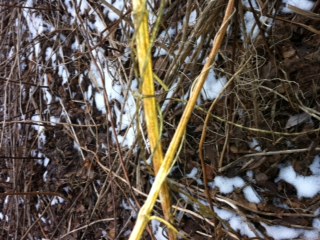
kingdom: Fungi
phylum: Ascomycota
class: Leotiomycetes
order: Helotiales
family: Calloriaceae
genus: Calloria
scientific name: Calloria urticae
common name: nælde-orangeskive
